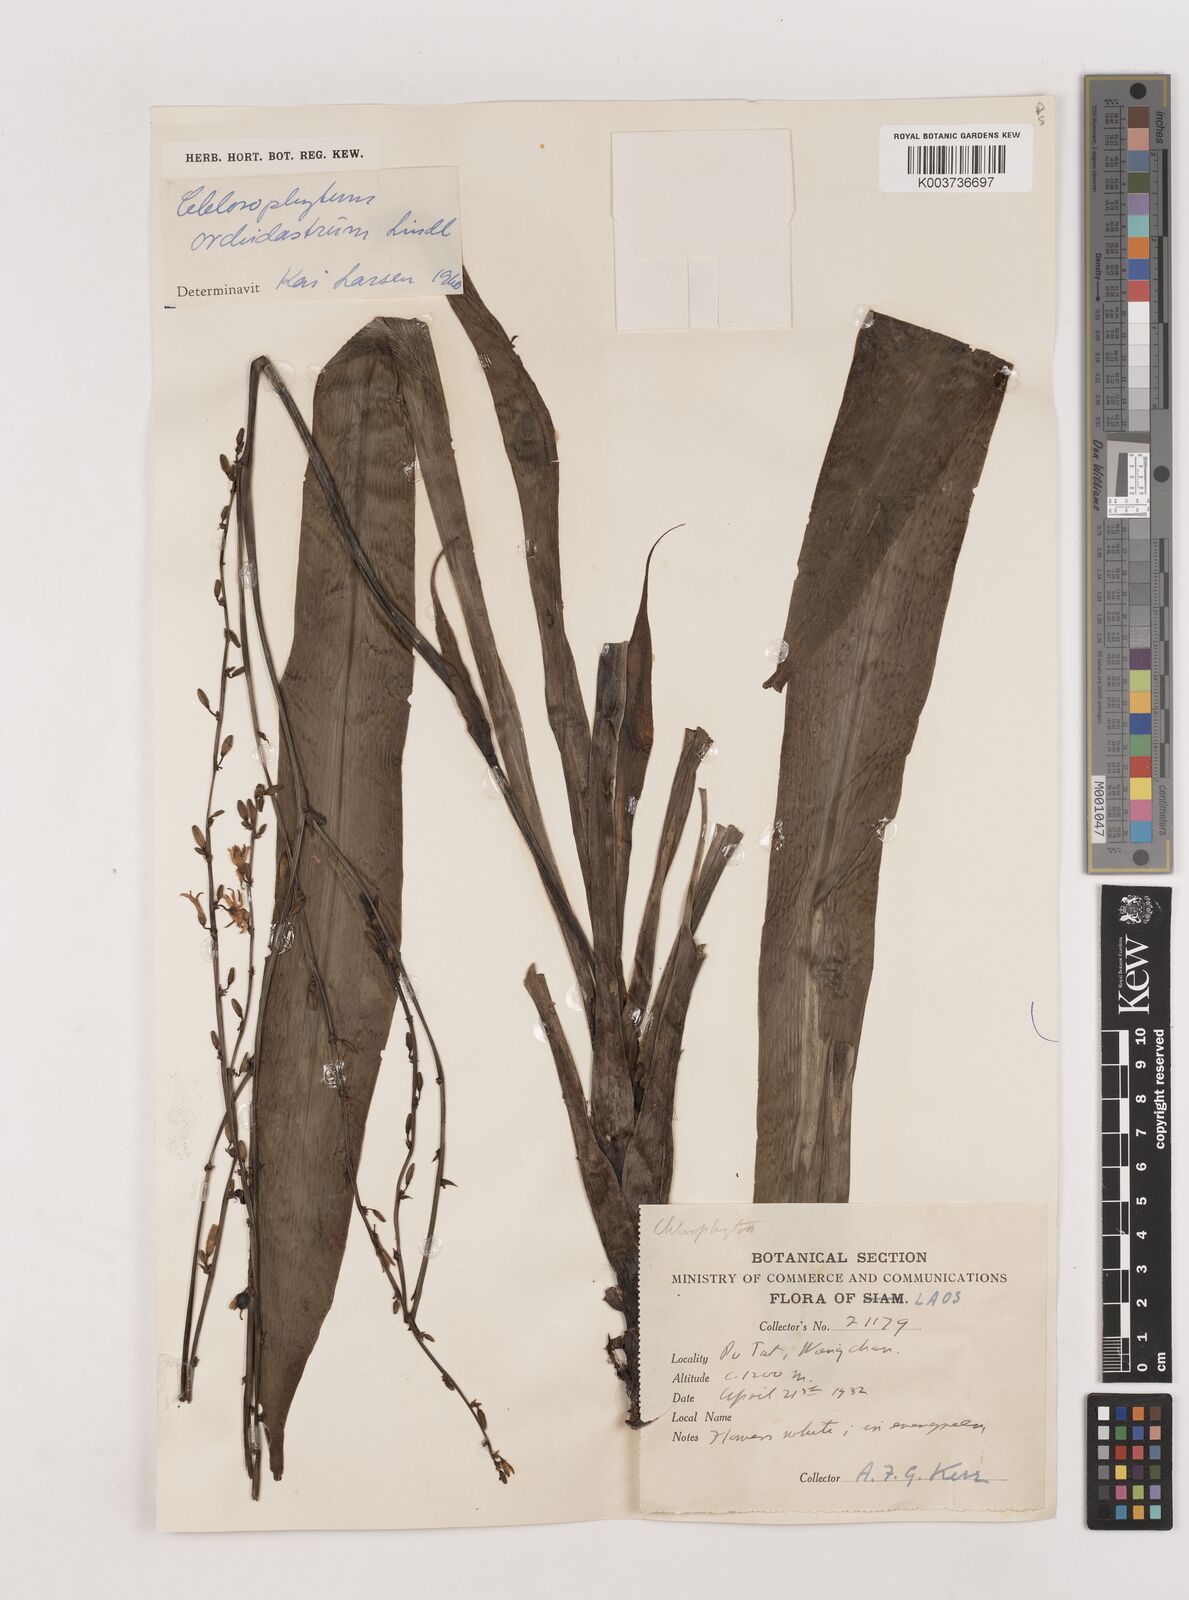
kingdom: Plantae
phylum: Tracheophyta
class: Liliopsida
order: Asparagales
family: Asparagaceae
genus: Chlorophytum
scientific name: Chlorophytum orchidastrum
